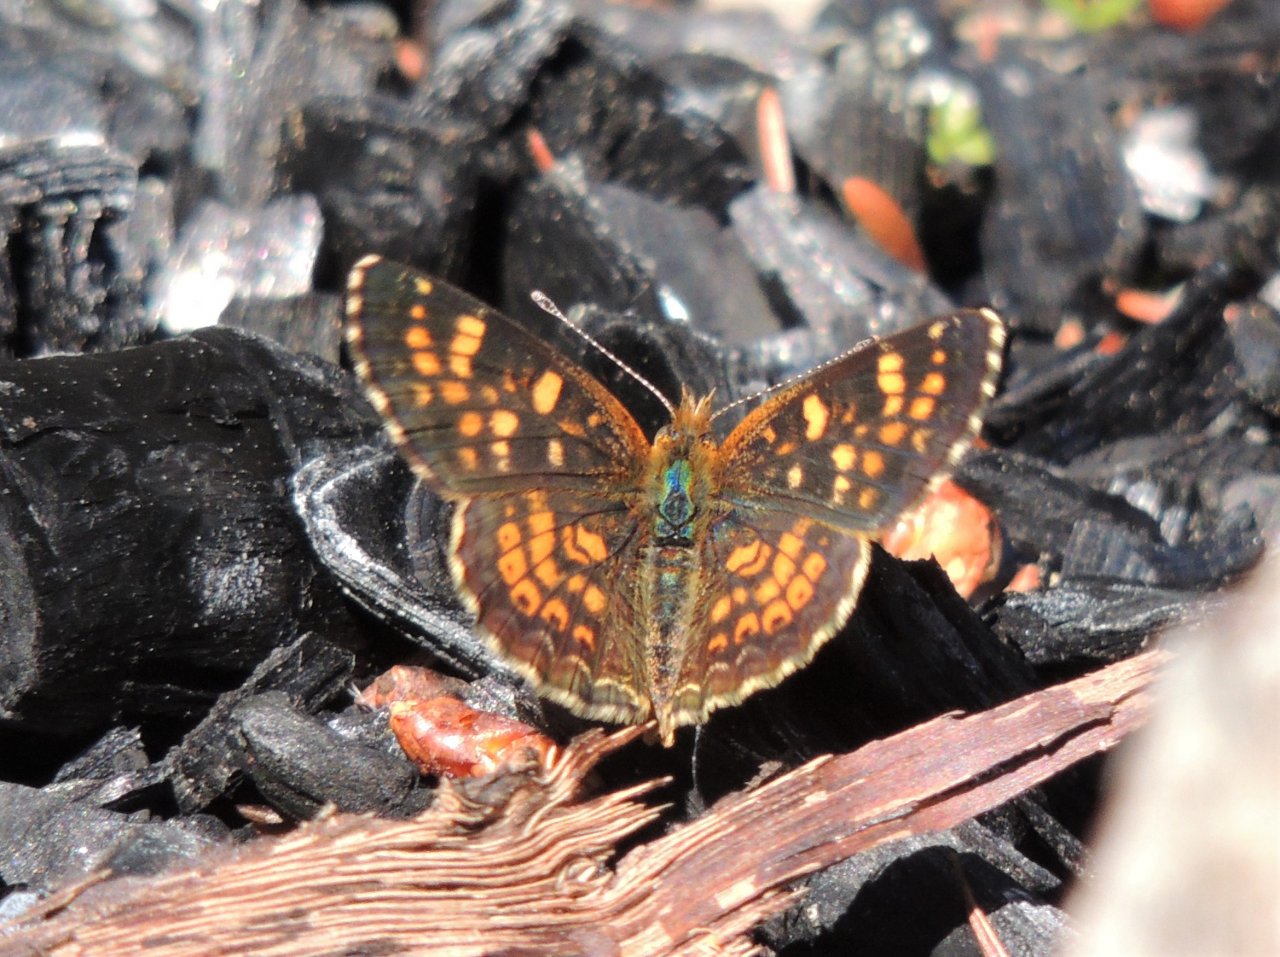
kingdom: Animalia
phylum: Arthropoda
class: Insecta
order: Lepidoptera
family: Nymphalidae
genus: Phyciodes
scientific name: Phyciodes tharos
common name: Field Crescent
